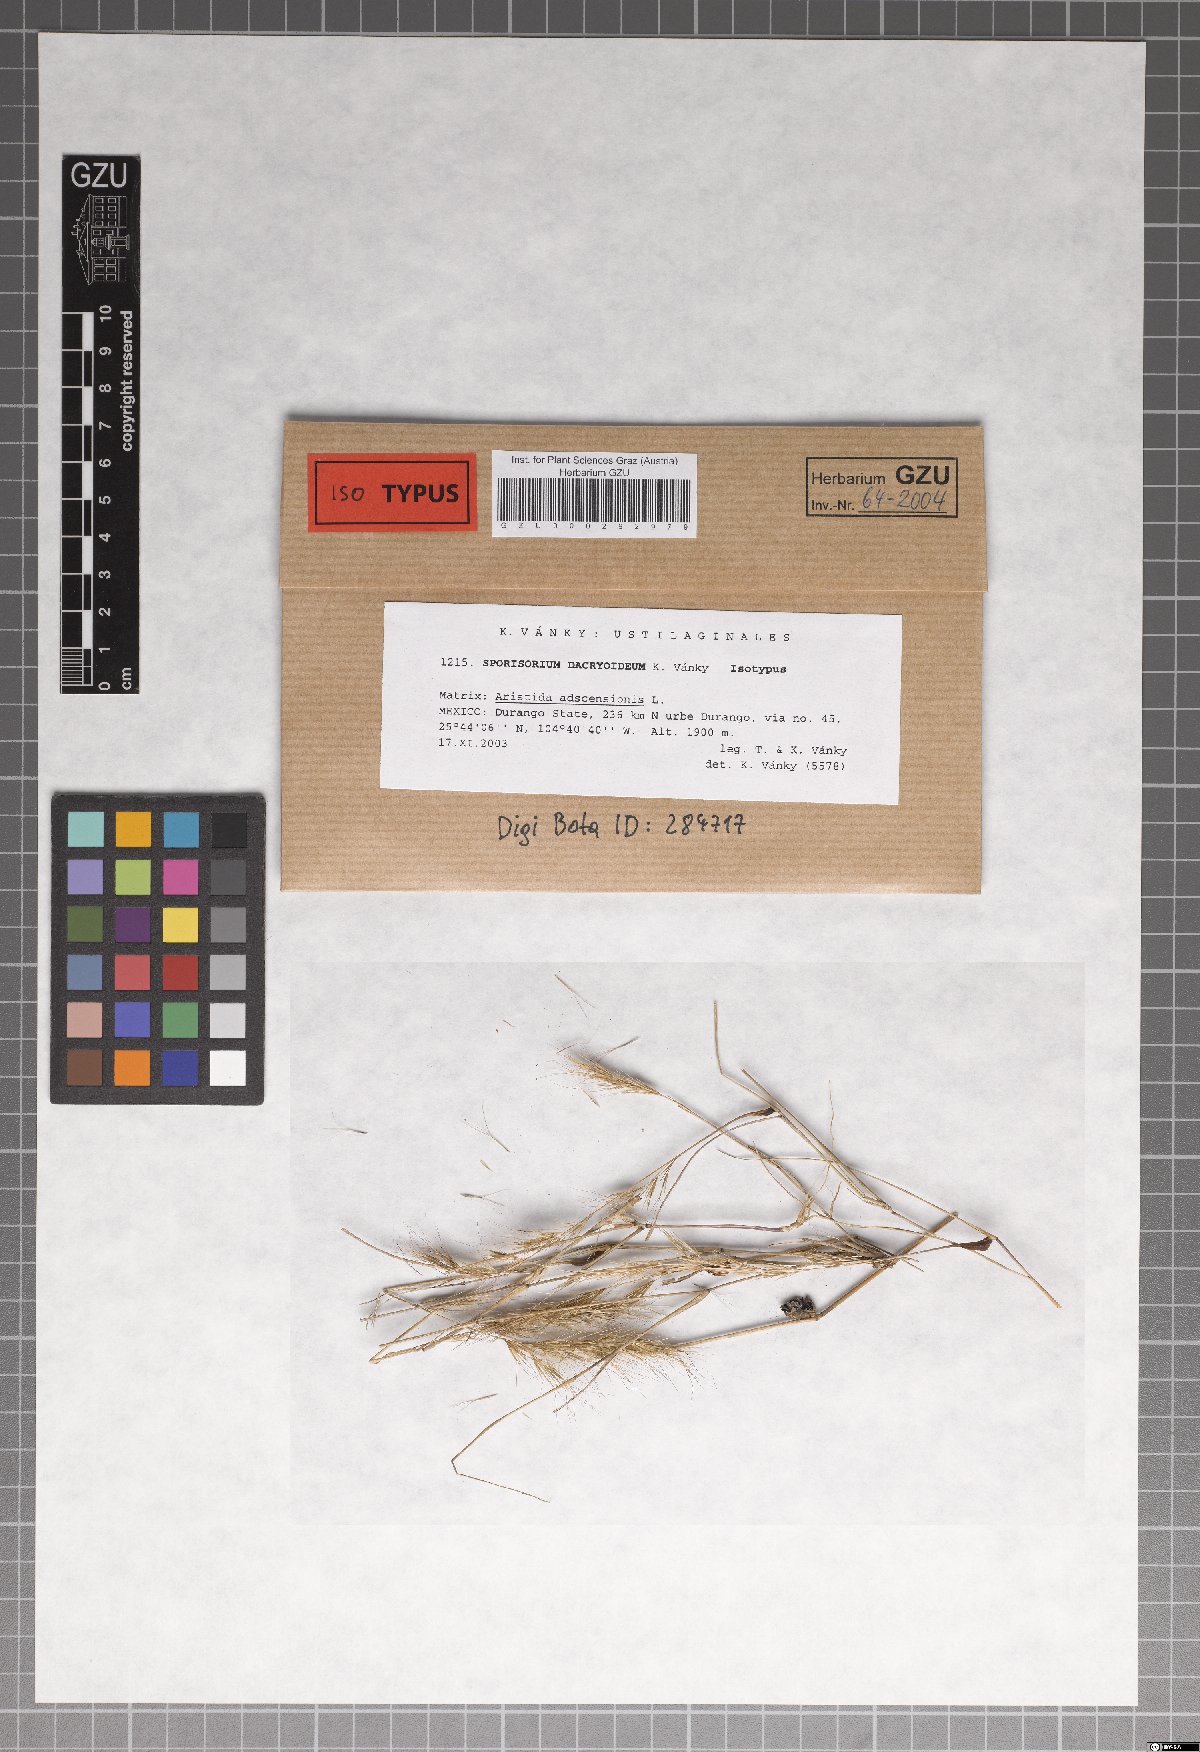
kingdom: Fungi
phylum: Basidiomycota
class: Ustilaginomycetes
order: Ustilaginales
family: Ustilaginaceae
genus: Sporisorium
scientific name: Sporisorium dacryoideum
